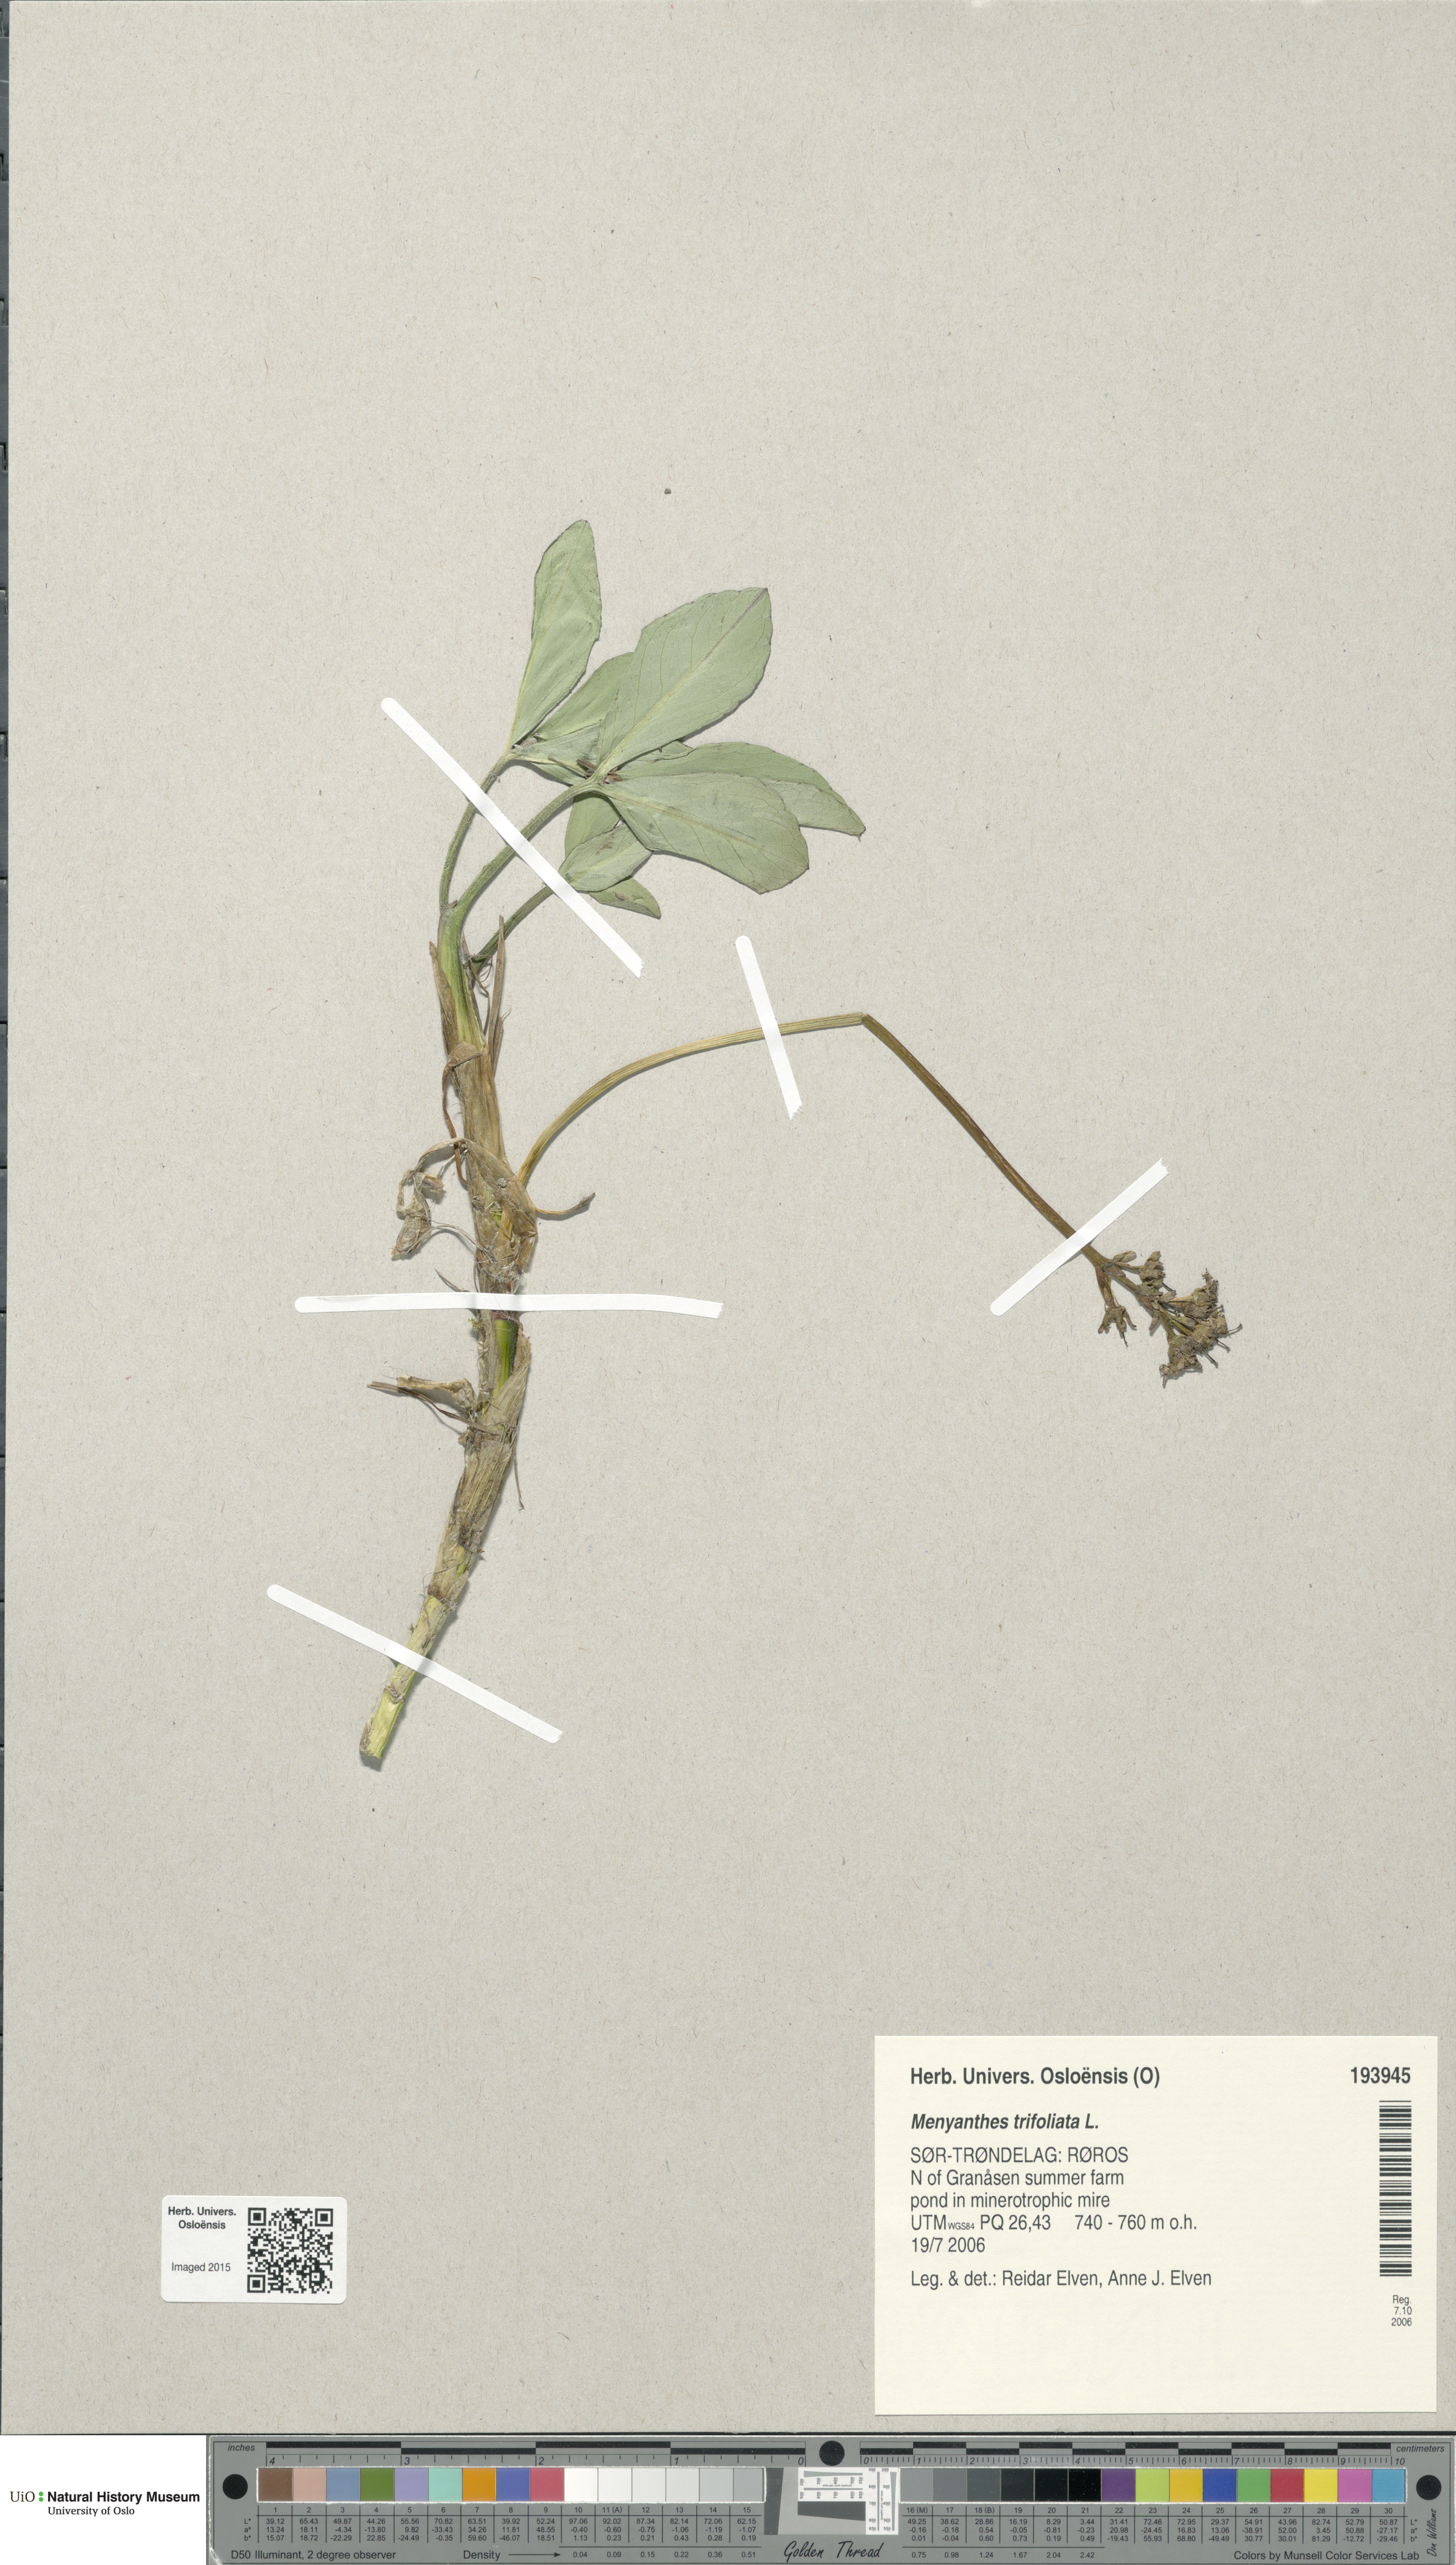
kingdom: Plantae
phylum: Tracheophyta
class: Magnoliopsida
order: Asterales
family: Menyanthaceae
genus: Menyanthes
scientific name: Menyanthes trifoliata
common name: Bogbean
